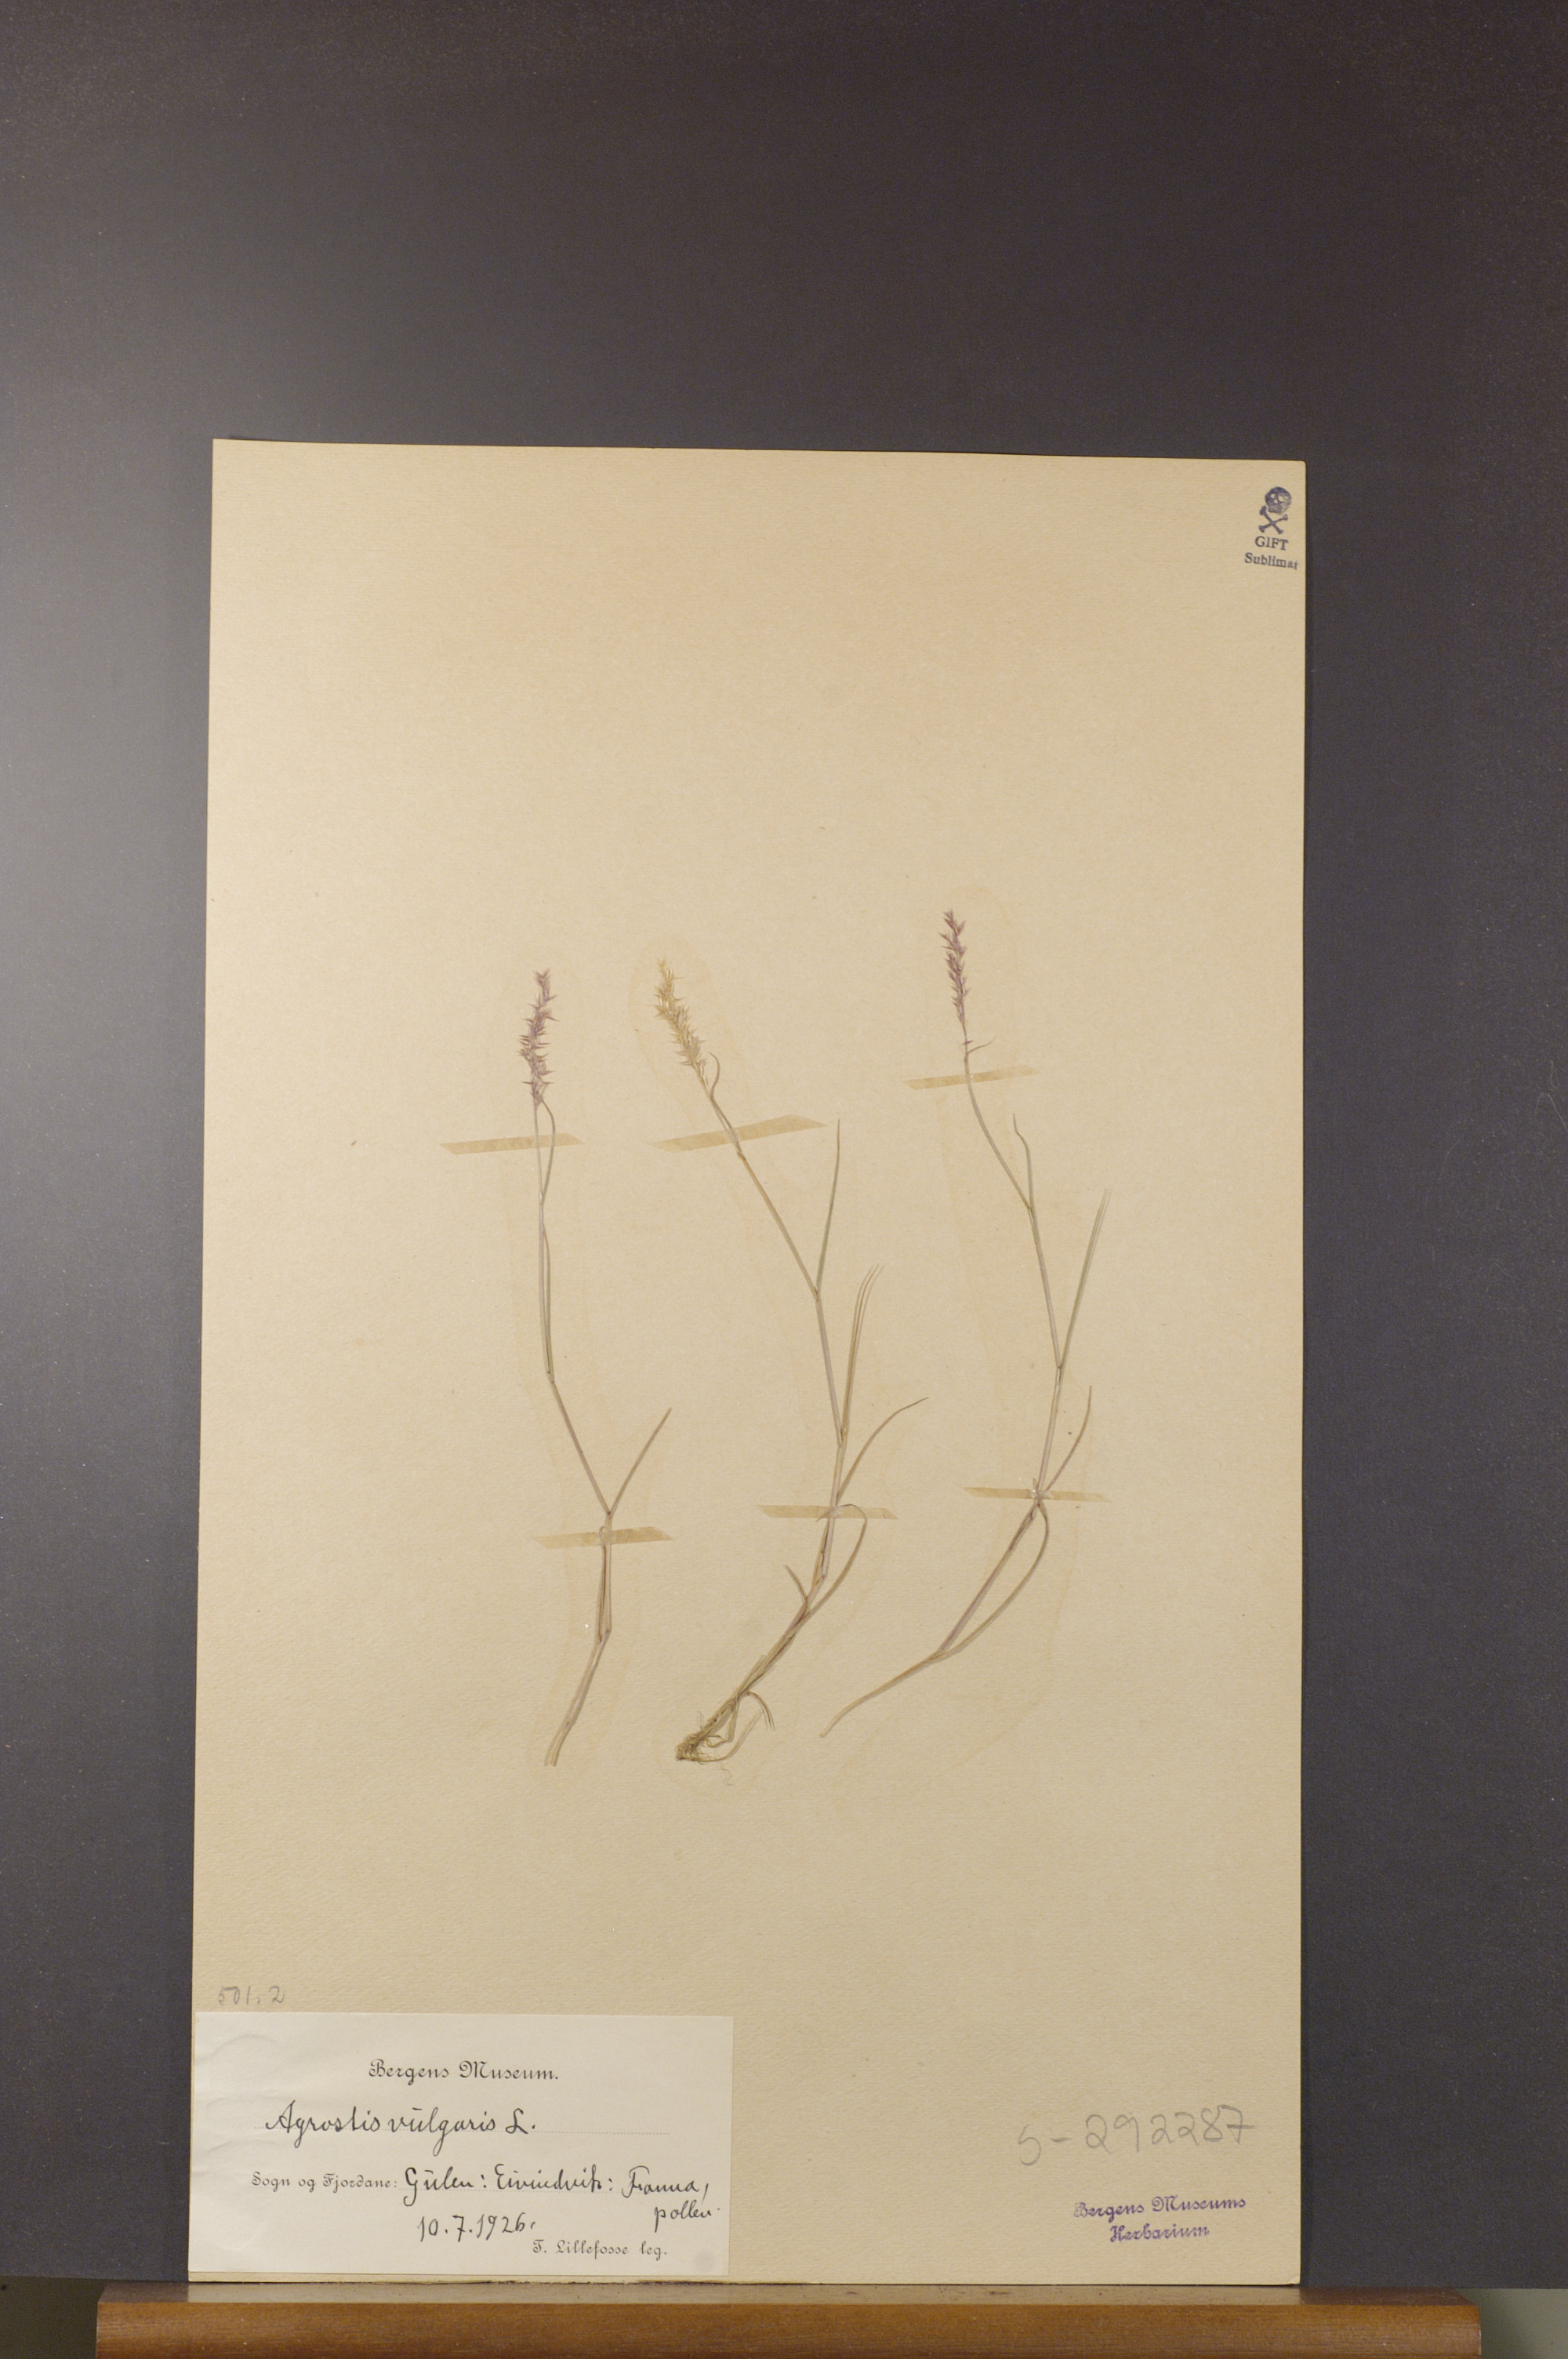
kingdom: Plantae
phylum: Tracheophyta
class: Liliopsida
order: Poales
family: Poaceae
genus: Agrostis
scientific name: Agrostis capillaris
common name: Colonial bentgrass
